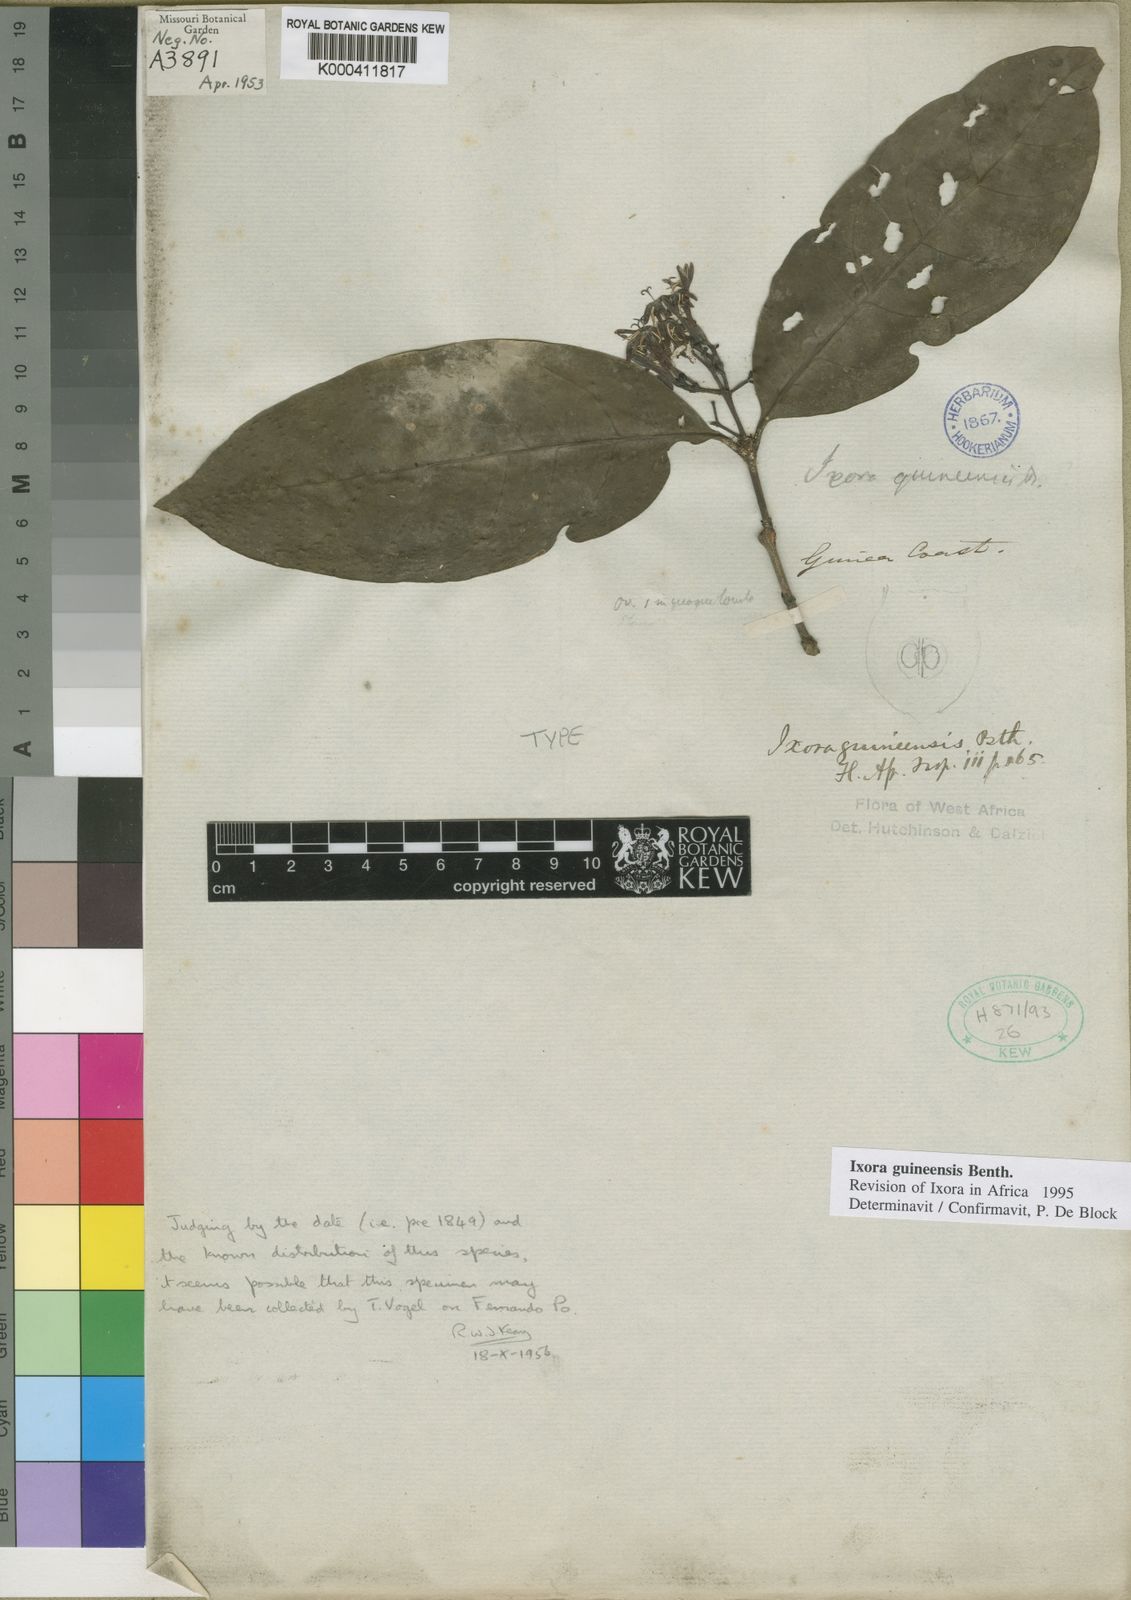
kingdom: Plantae
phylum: Tracheophyta
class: Magnoliopsida
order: Gentianales
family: Rubiaceae
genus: Ixora
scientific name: Ixora guineensis
